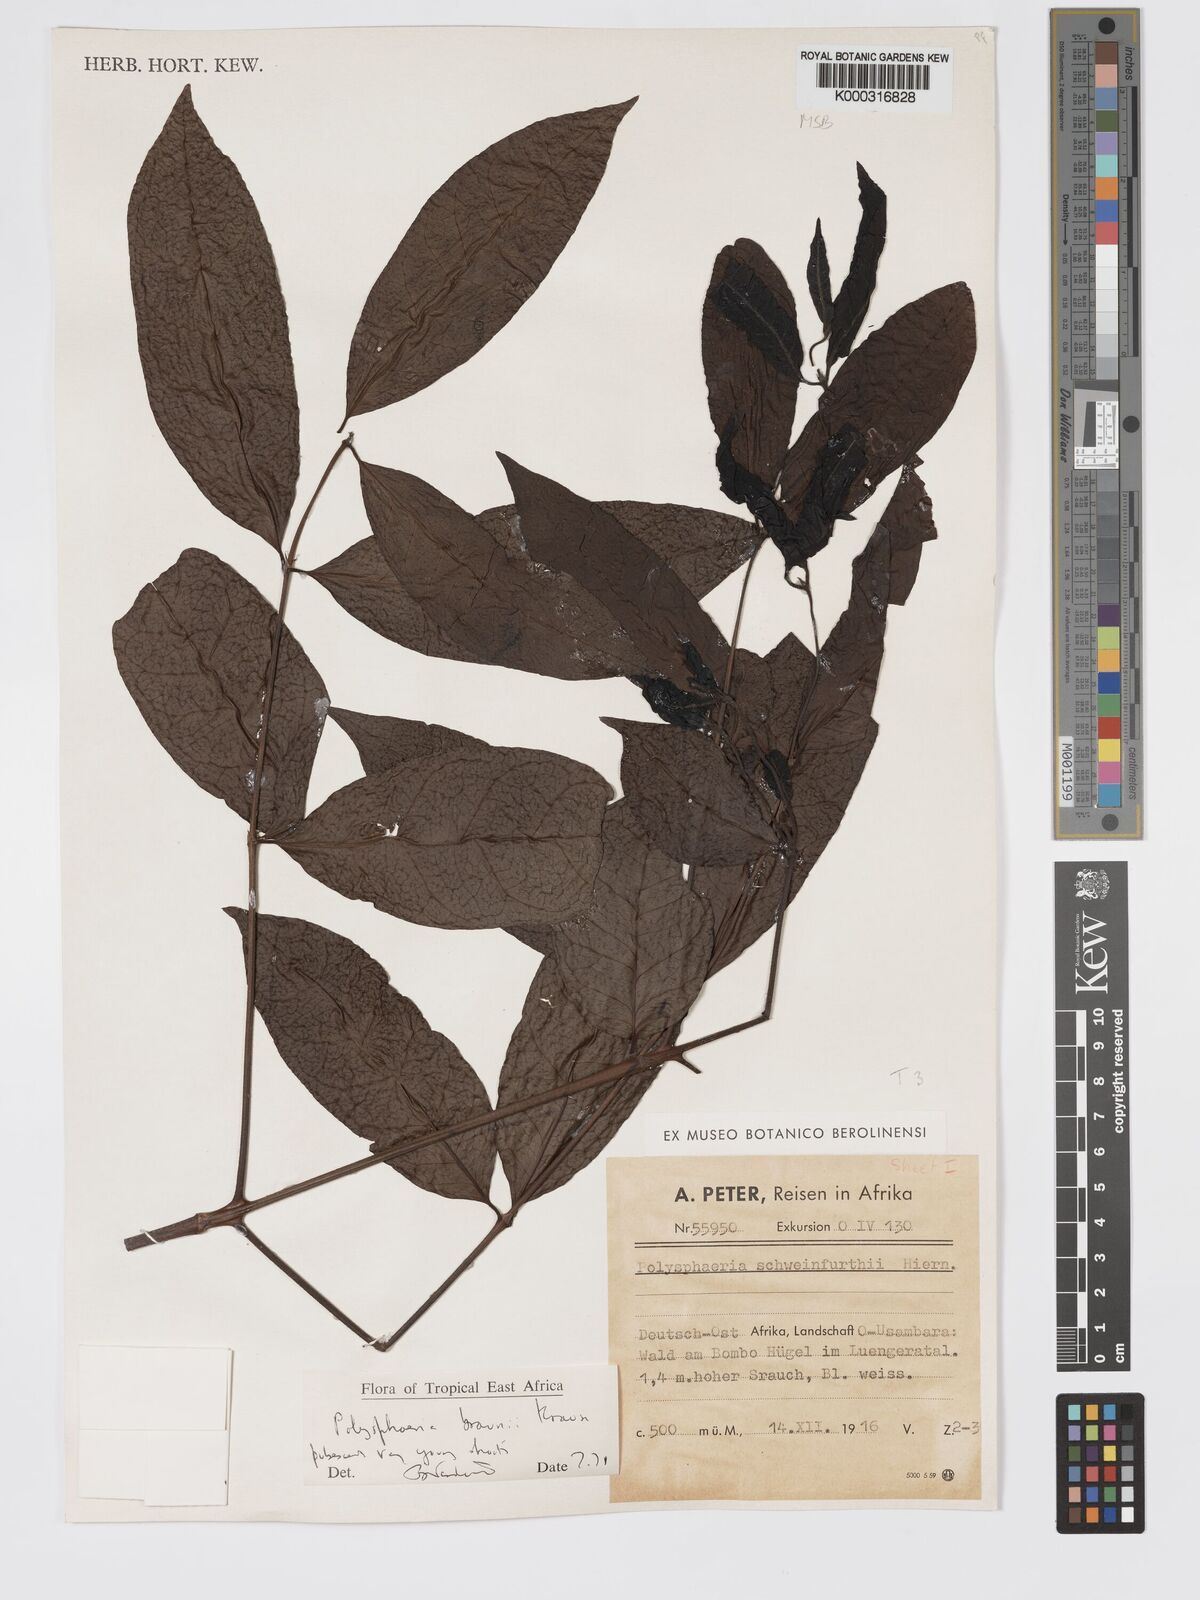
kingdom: Plantae
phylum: Tracheophyta
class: Magnoliopsida
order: Gentianales
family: Rubiaceae
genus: Polysphaeria
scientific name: Polysphaeria braunii
